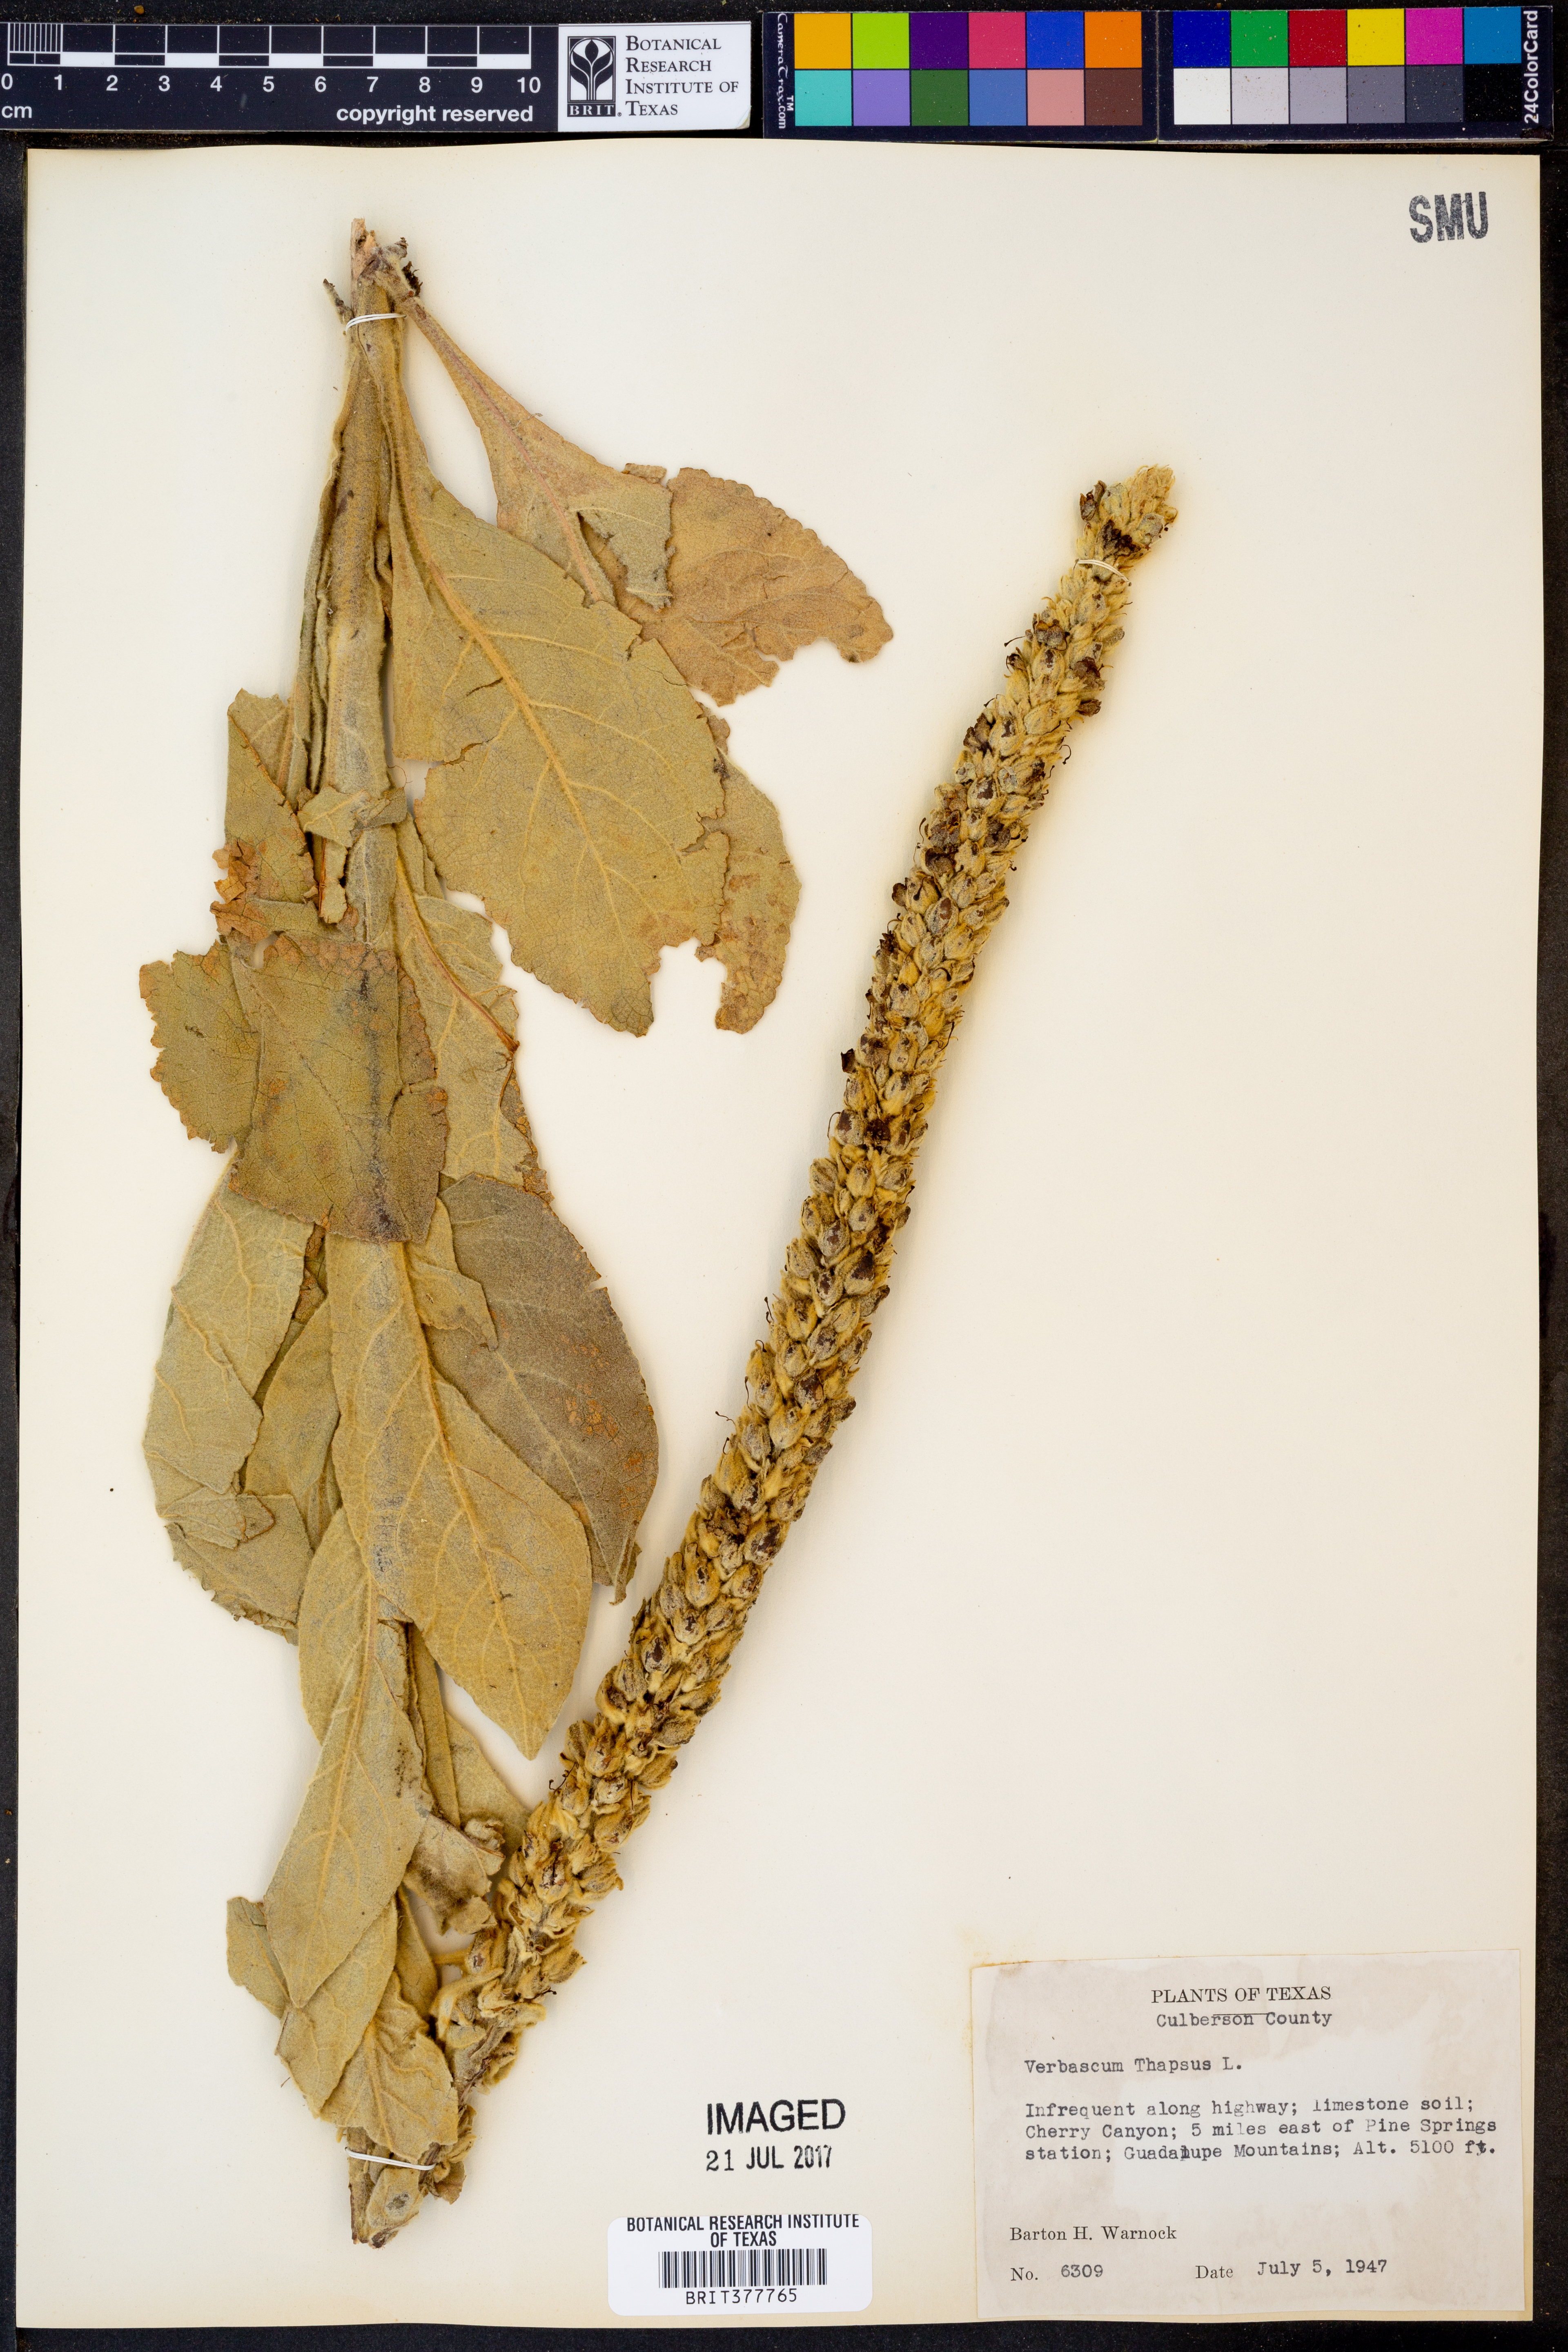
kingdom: Plantae
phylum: Tracheophyta
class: Magnoliopsida
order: Lamiales
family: Scrophulariaceae
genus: Verbascum
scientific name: Verbascum thapsus
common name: Common mullein
